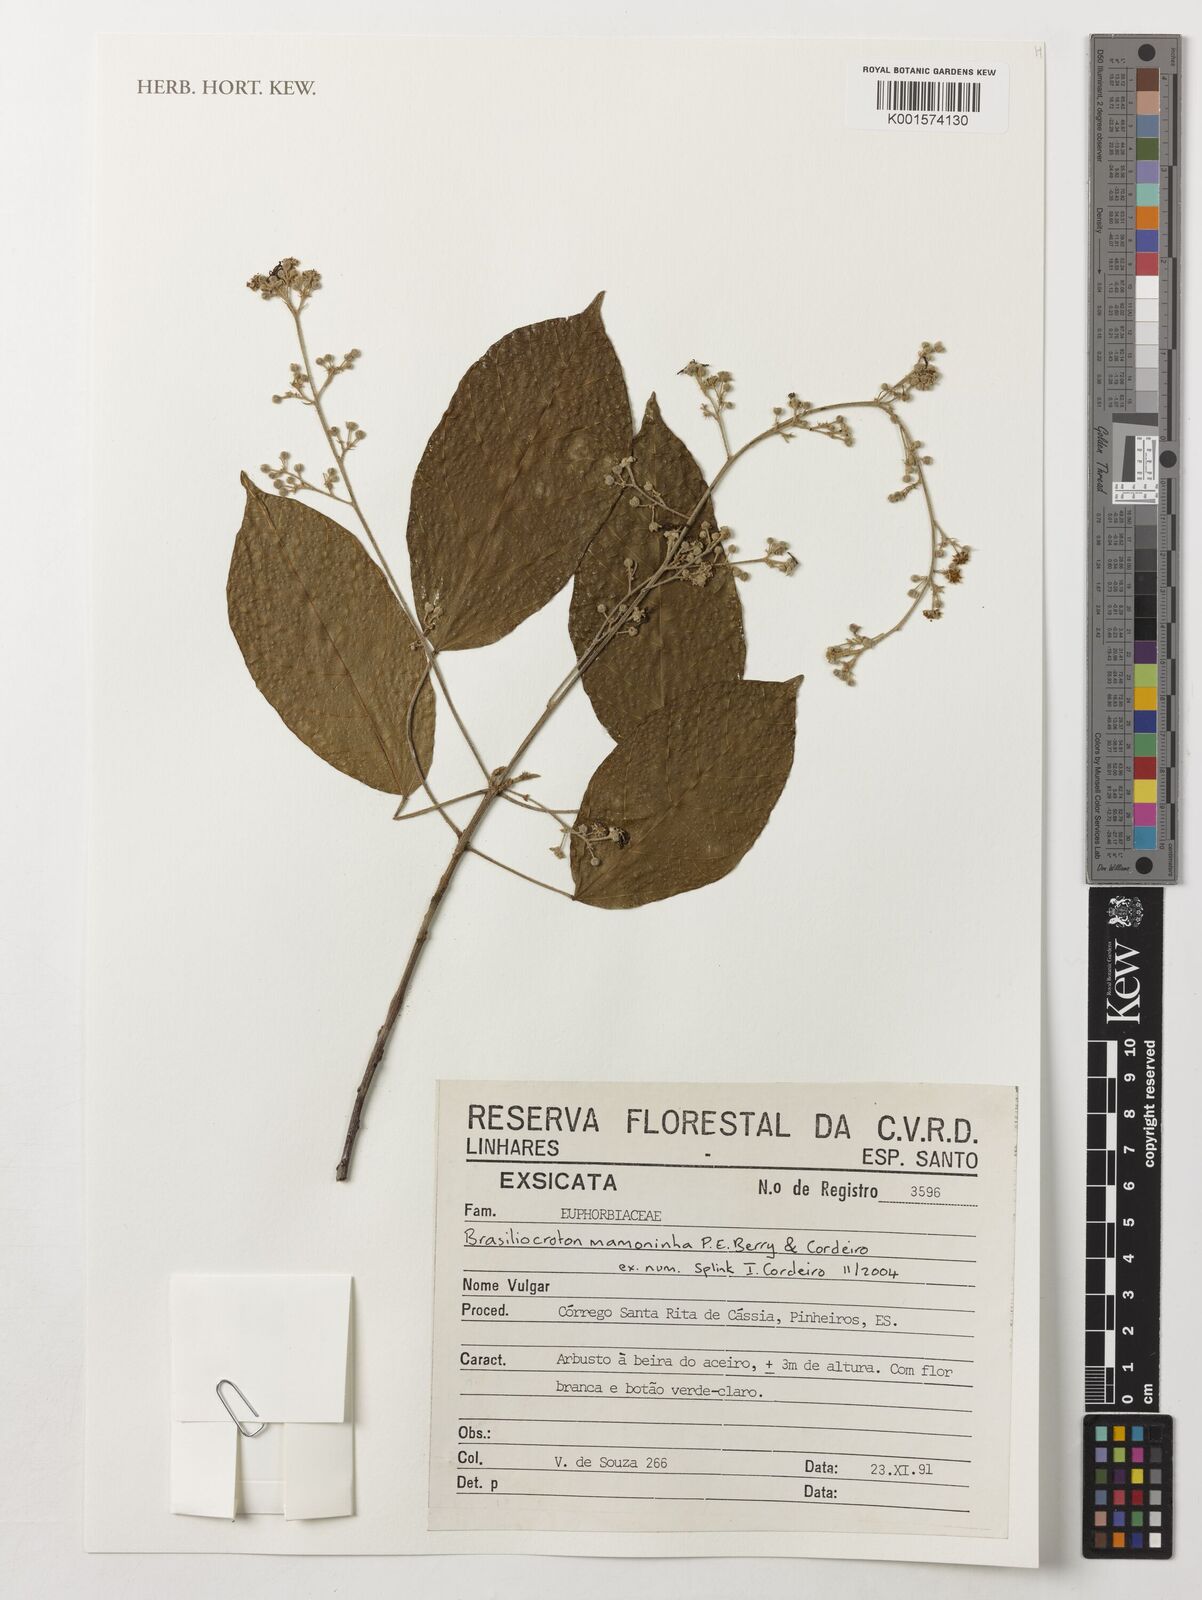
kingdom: Plantae
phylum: Tracheophyta
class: Magnoliopsida
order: Malpighiales
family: Euphorbiaceae
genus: Brasiliocroton
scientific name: Brasiliocroton mamoninha
